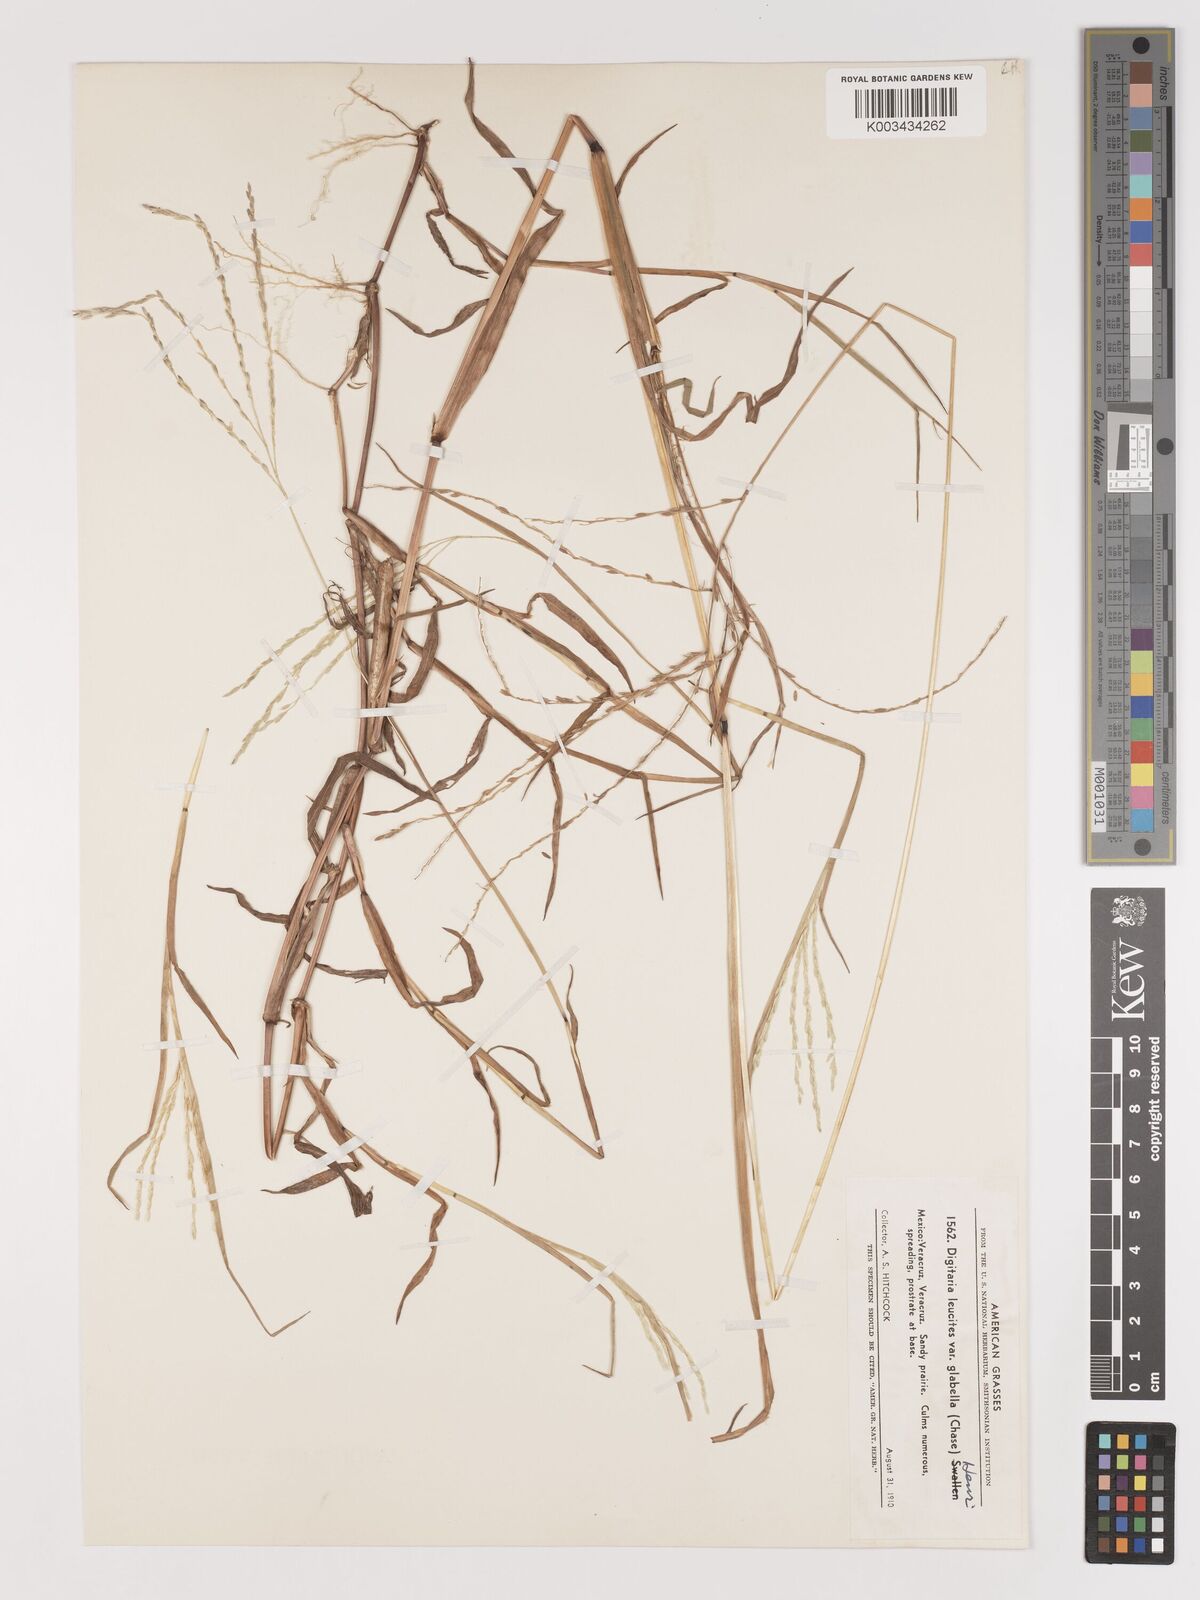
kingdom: Plantae
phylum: Tracheophyta
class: Liliopsida
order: Poales
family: Poaceae
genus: Digitaria
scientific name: Digitaria leucites
